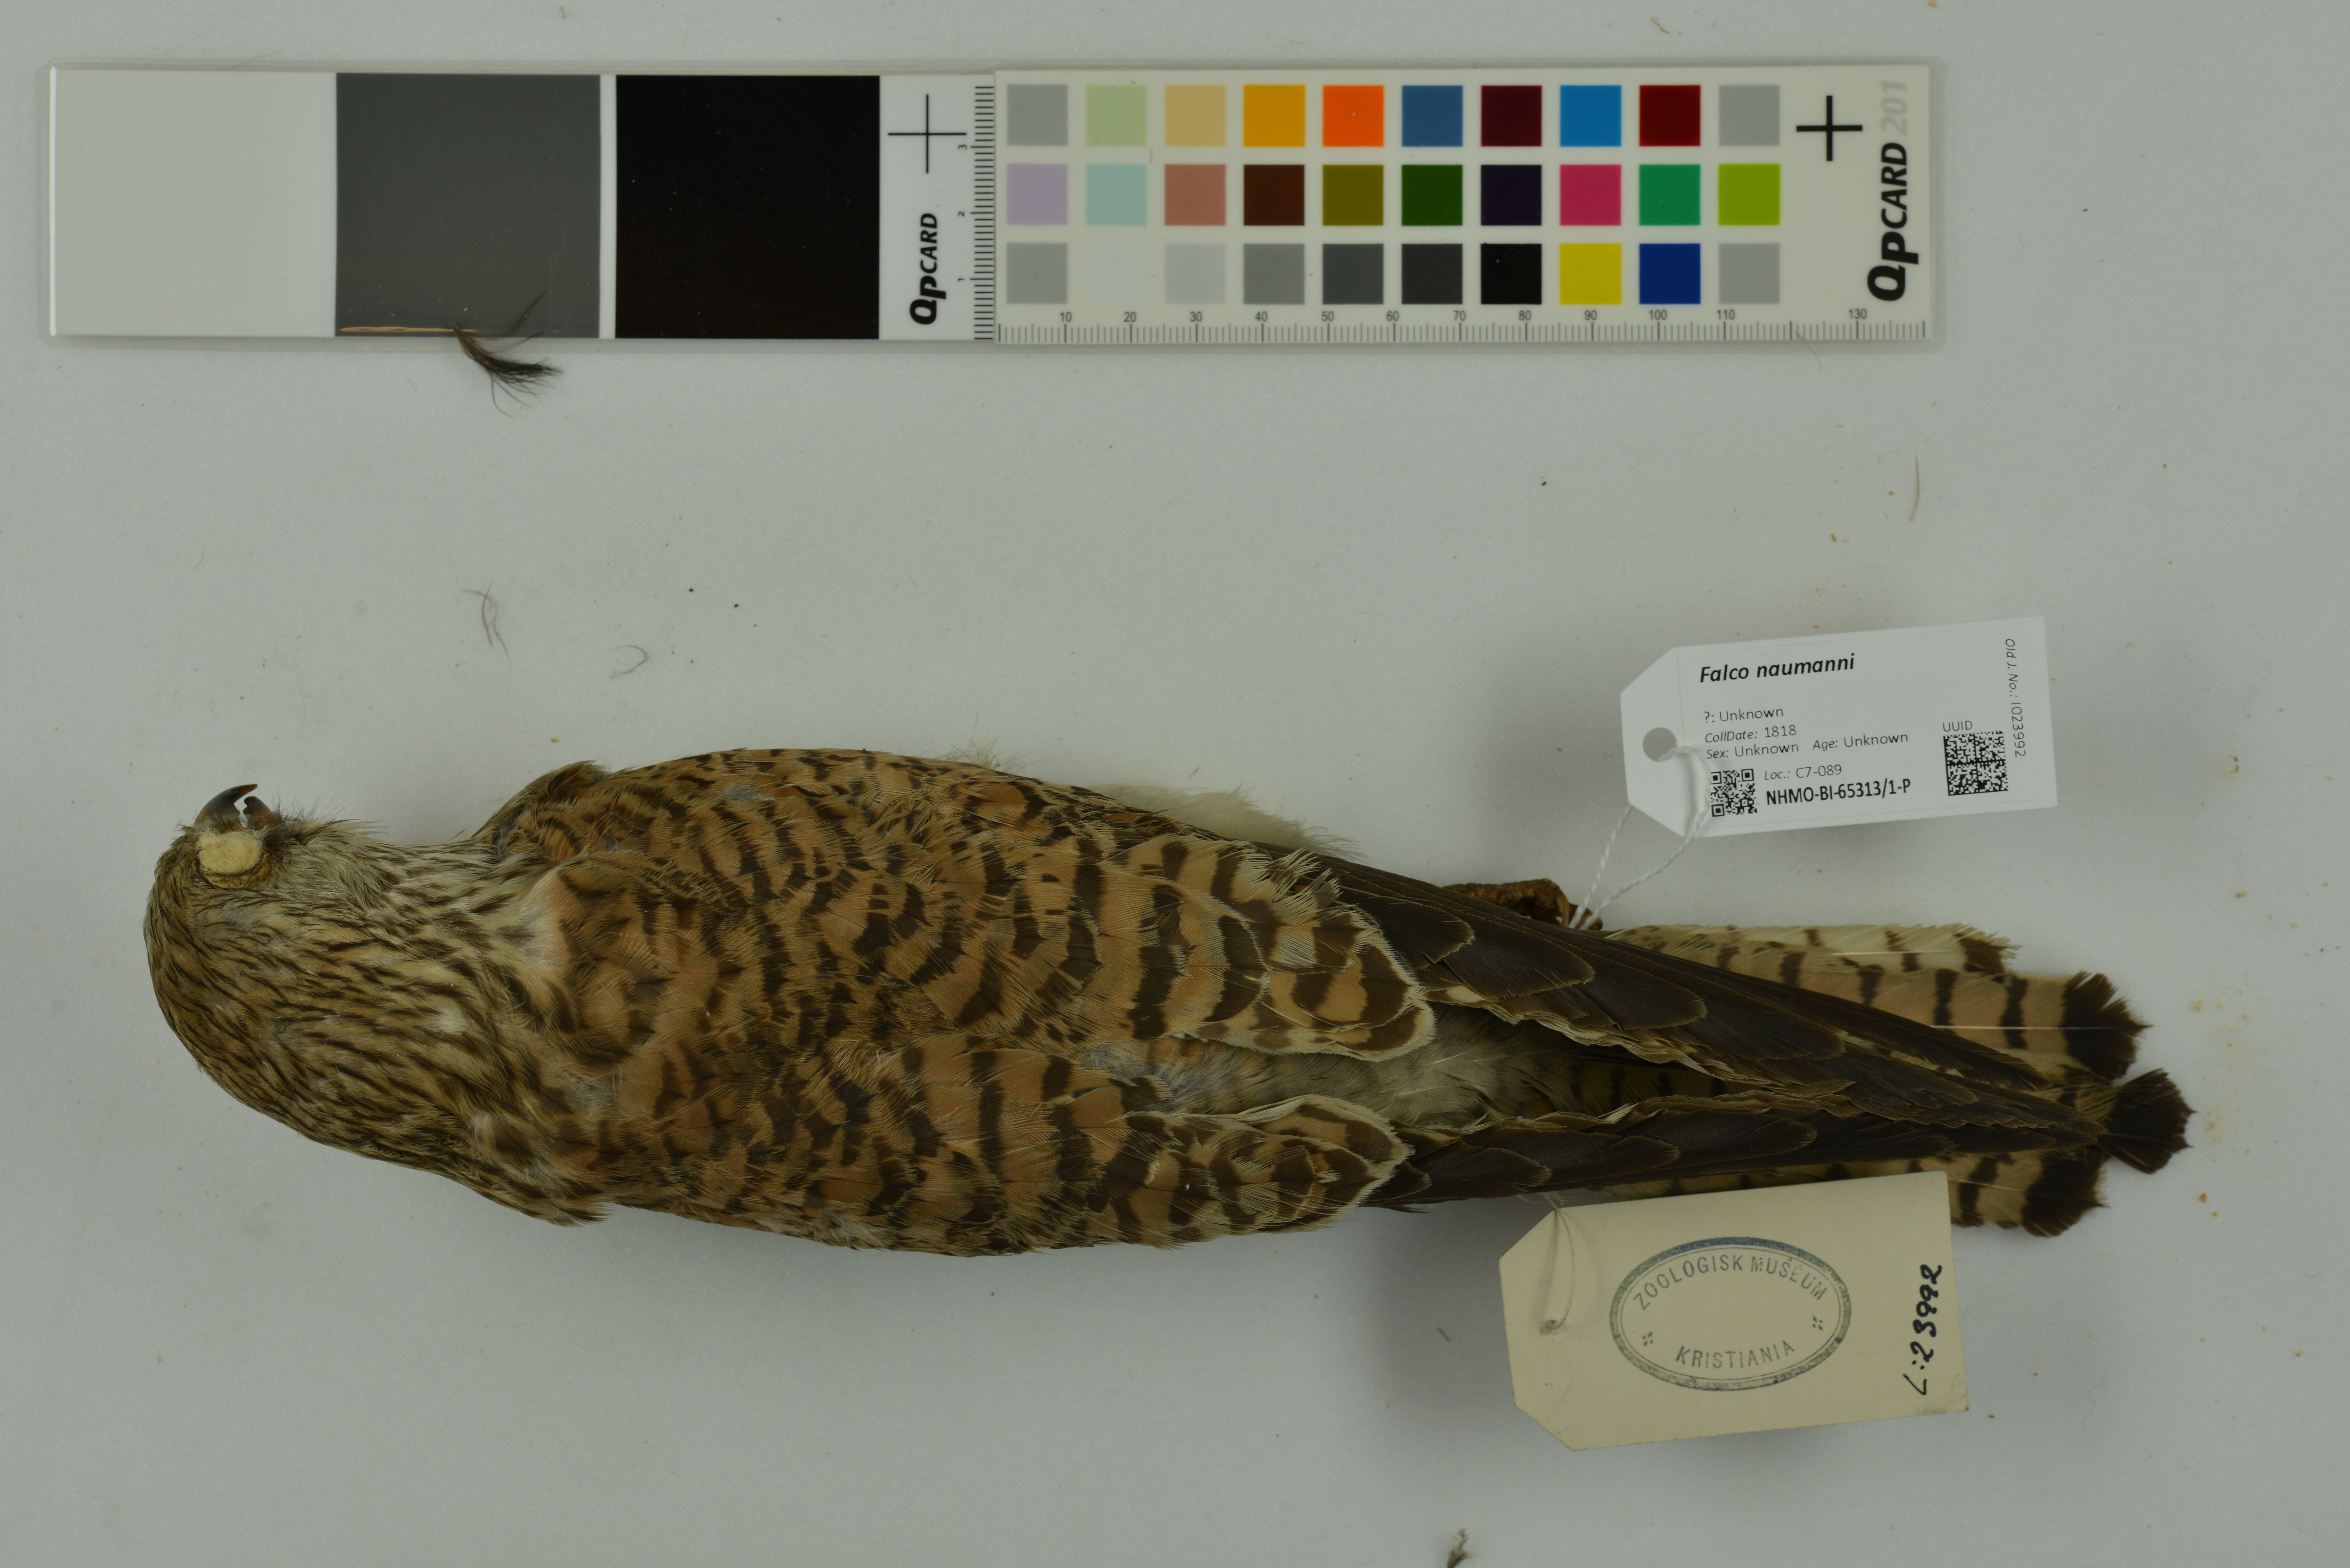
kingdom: Animalia
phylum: Chordata
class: Aves
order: Falconiformes
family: Falconidae
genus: Falco
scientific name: Falco naumanni
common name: Lesser kestrel
